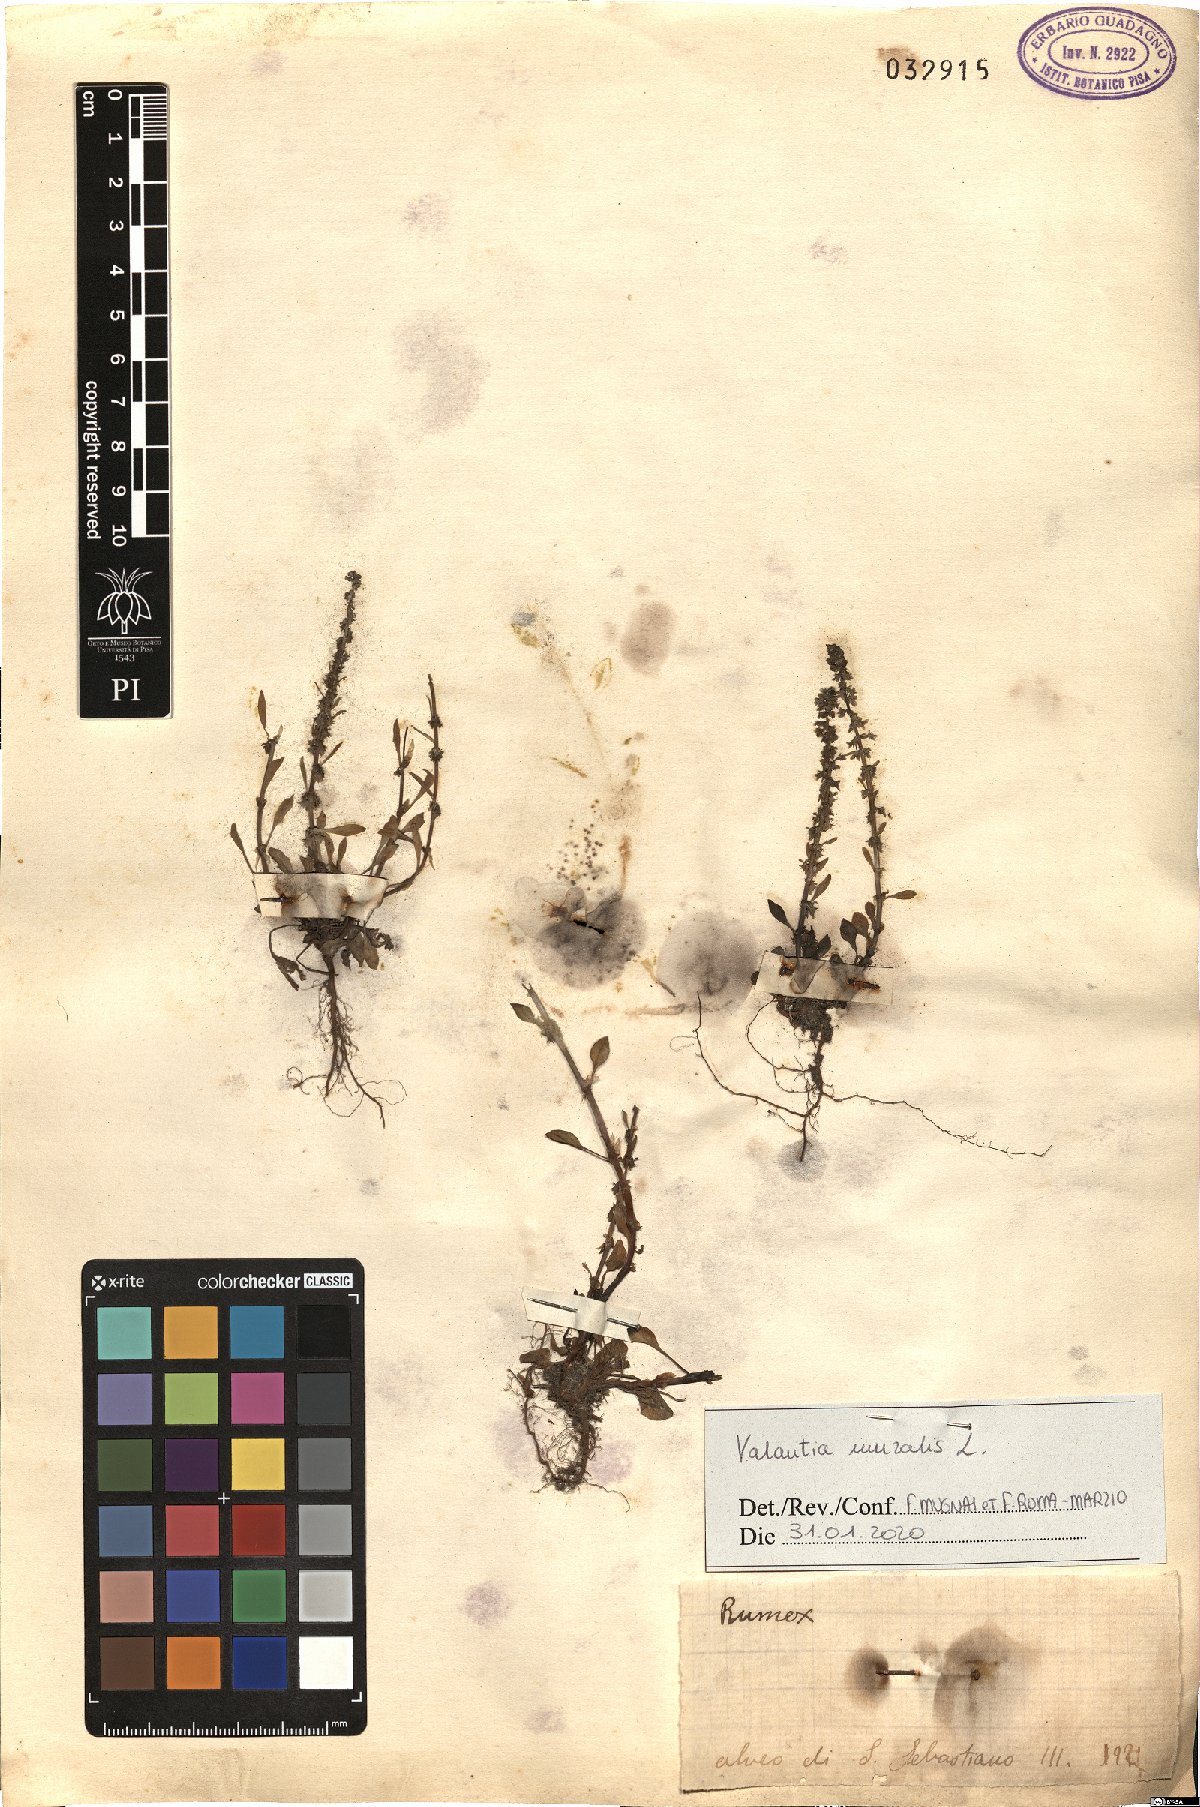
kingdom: Plantae
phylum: Tracheophyta
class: Magnoliopsida
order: Gentianales
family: Rubiaceae
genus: Valantia
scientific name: Valantia muralis
